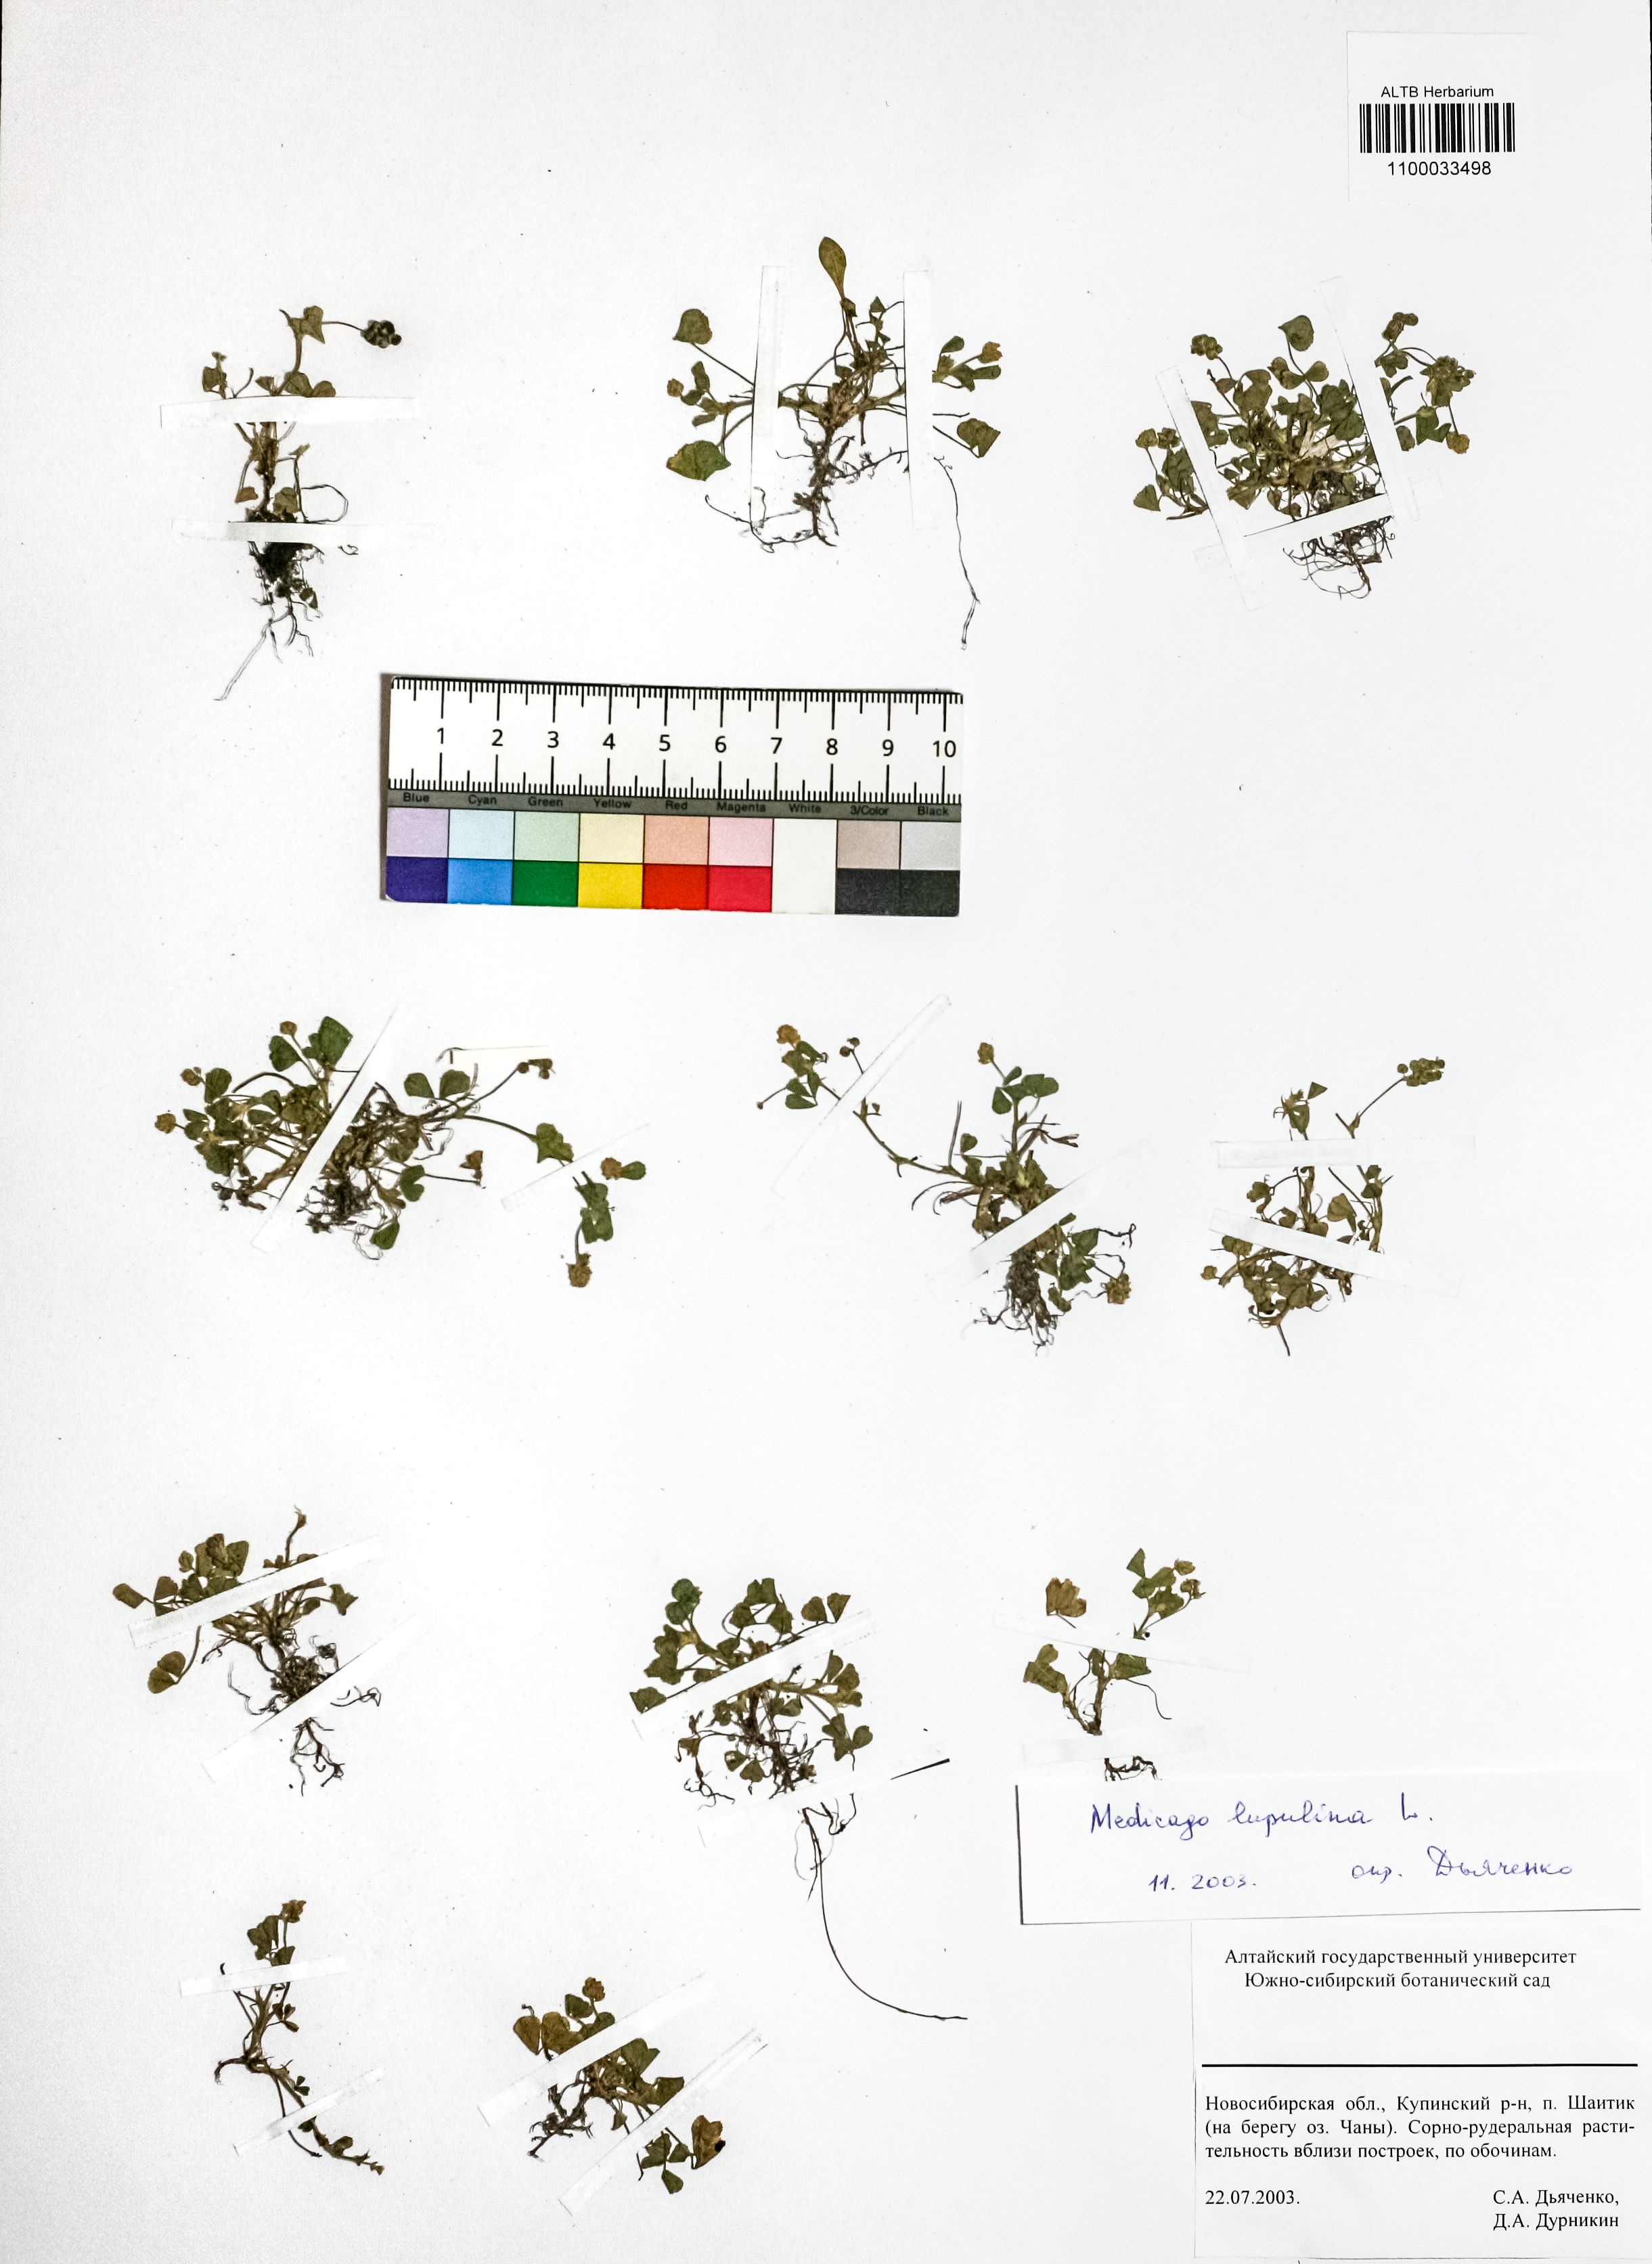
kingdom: Plantae
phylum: Tracheophyta
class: Magnoliopsida
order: Fabales
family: Fabaceae
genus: Medicago
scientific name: Medicago lupulina
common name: Black medick
